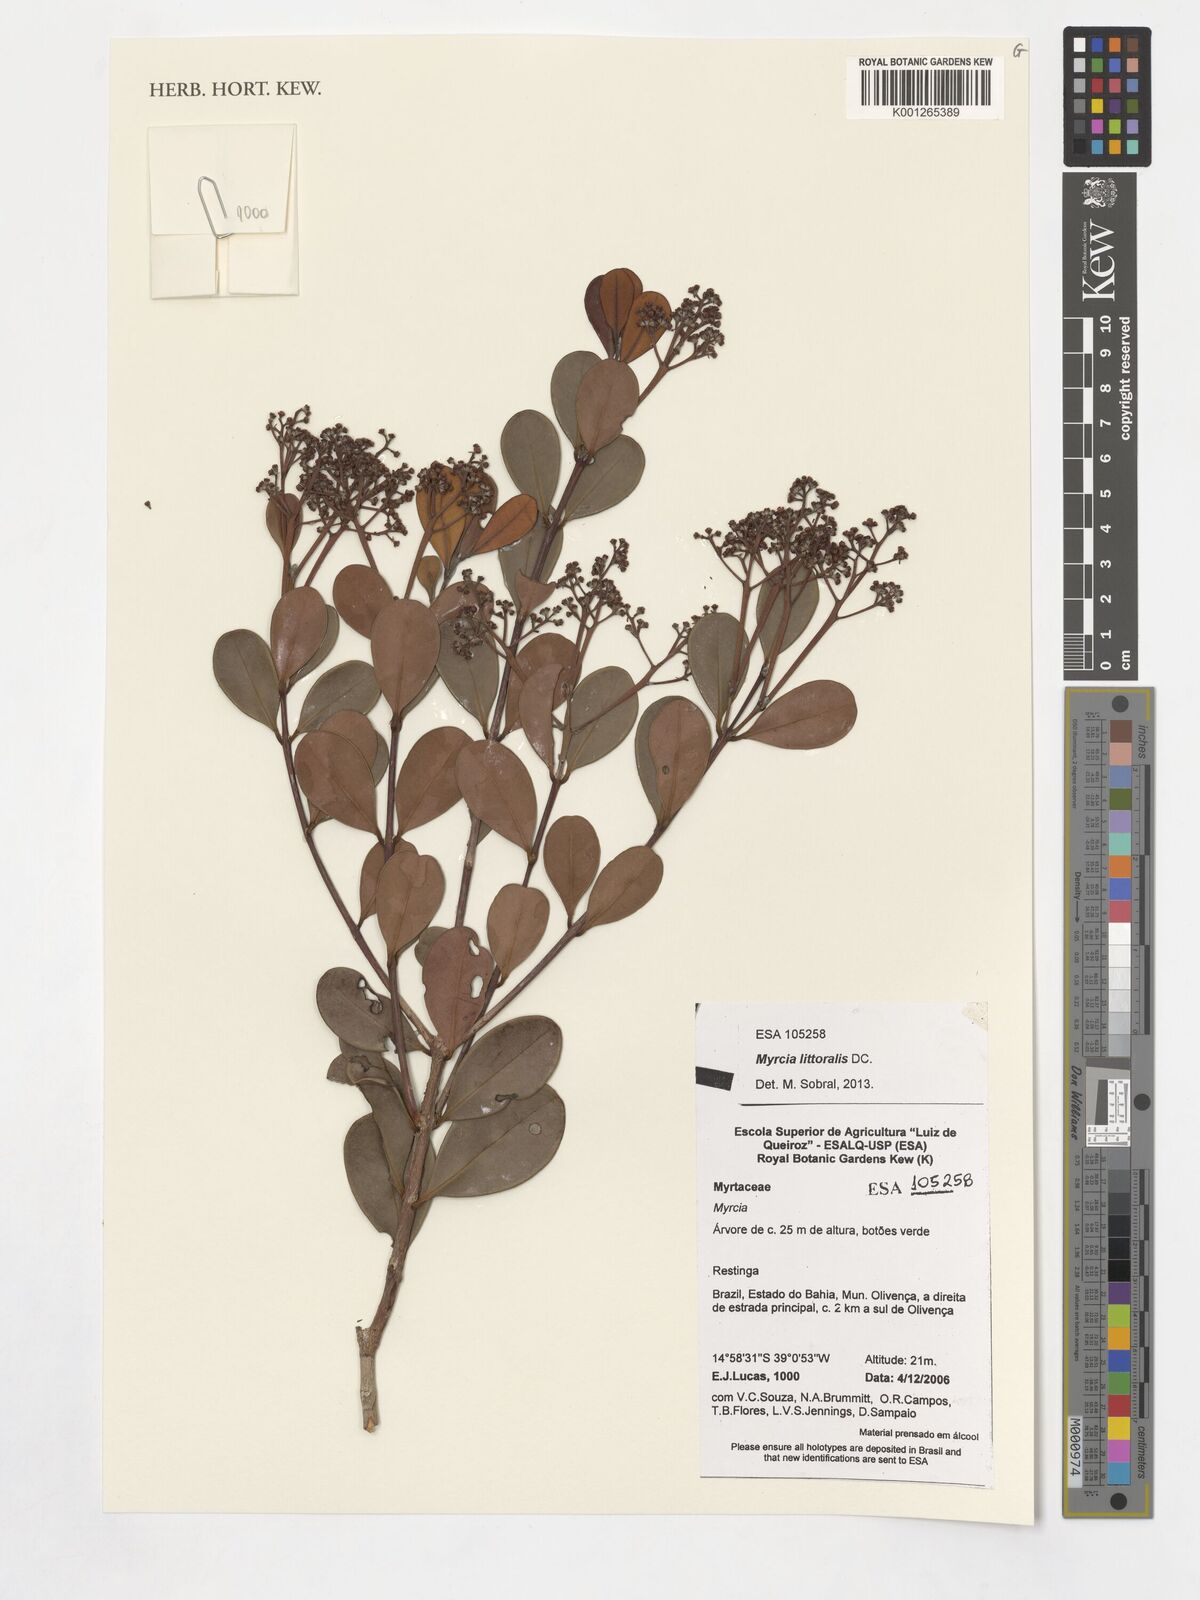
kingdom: Plantae
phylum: Tracheophyta
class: Magnoliopsida
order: Myrtales
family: Myrtaceae
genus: Myrcia
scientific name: Myrcia littoralis
